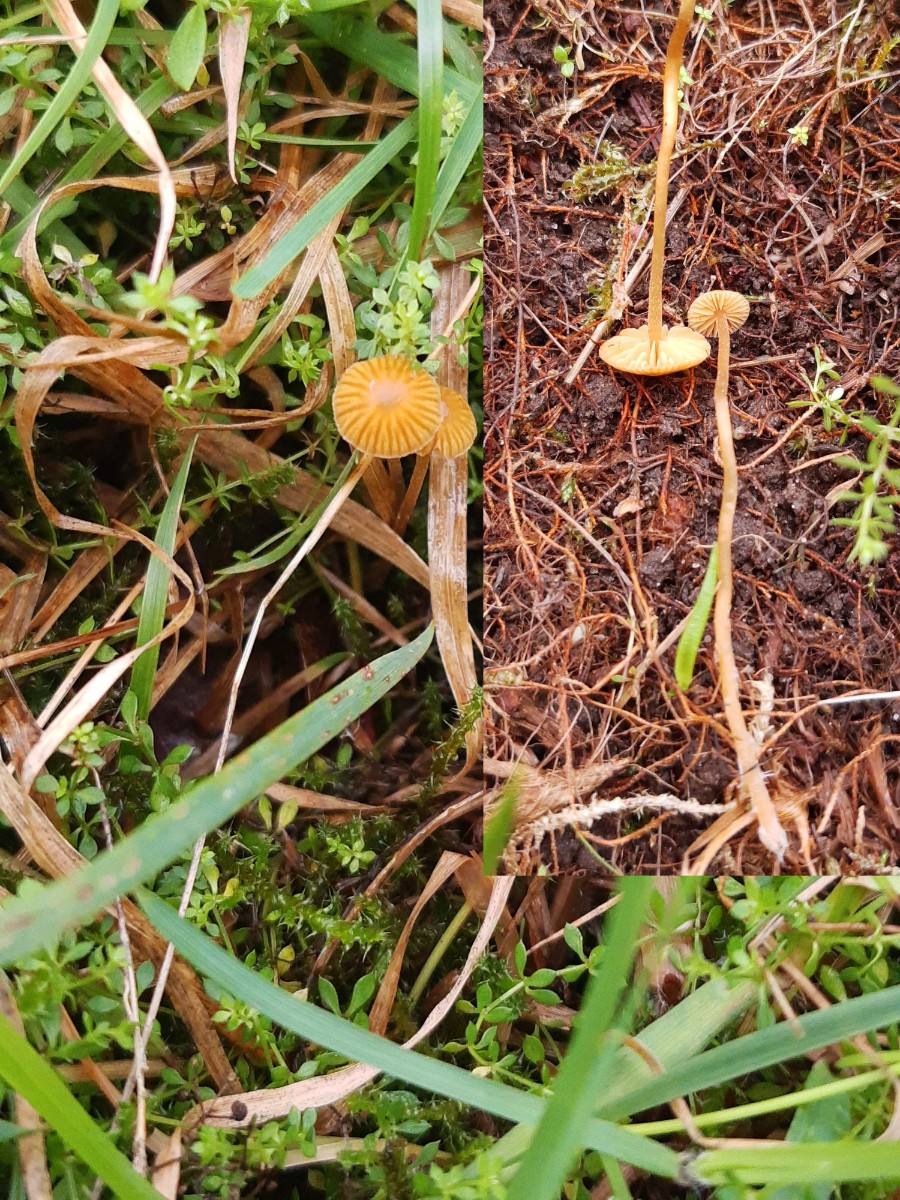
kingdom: Fungi
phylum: Basidiomycota
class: Agaricomycetes
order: Agaricales
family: Hymenogastraceae
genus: Galerina
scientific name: Galerina hypnorum
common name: mos-hjelmhat
